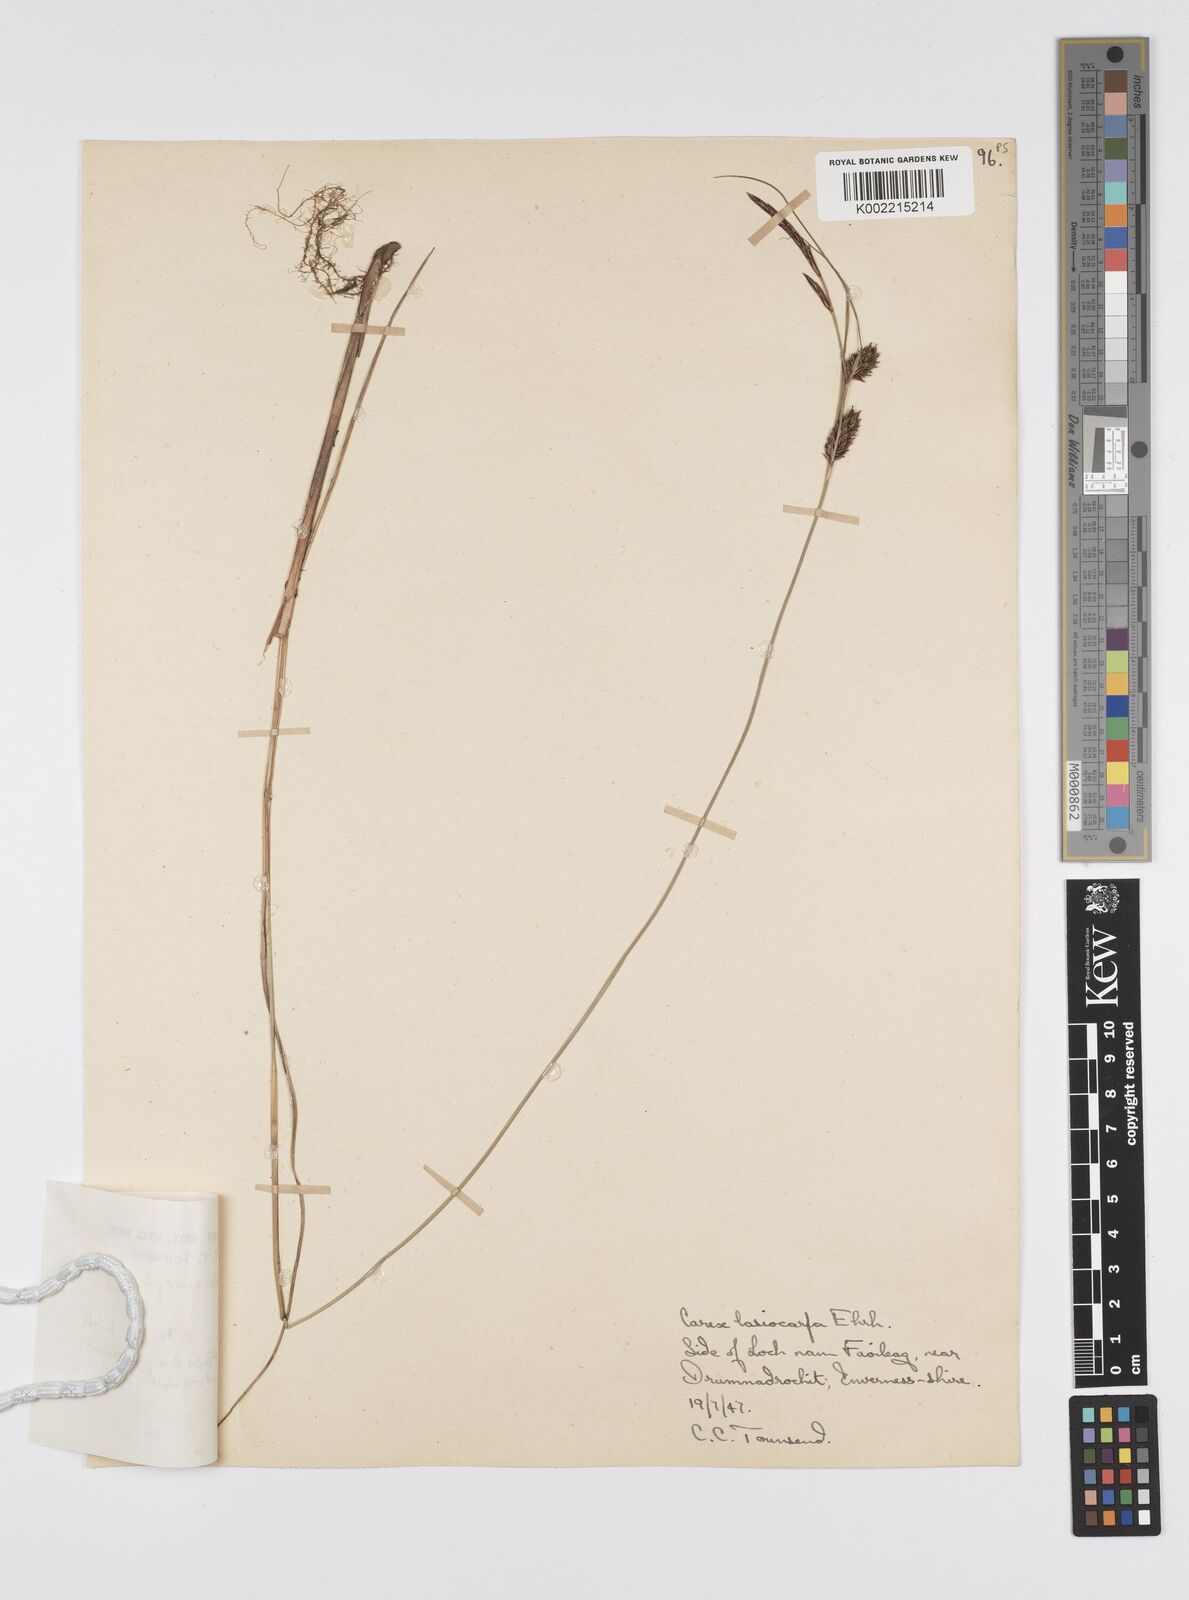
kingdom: Plantae
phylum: Tracheophyta
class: Liliopsida
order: Poales
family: Cyperaceae
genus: Carex
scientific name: Carex lasiocarpa
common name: Slender sedge
